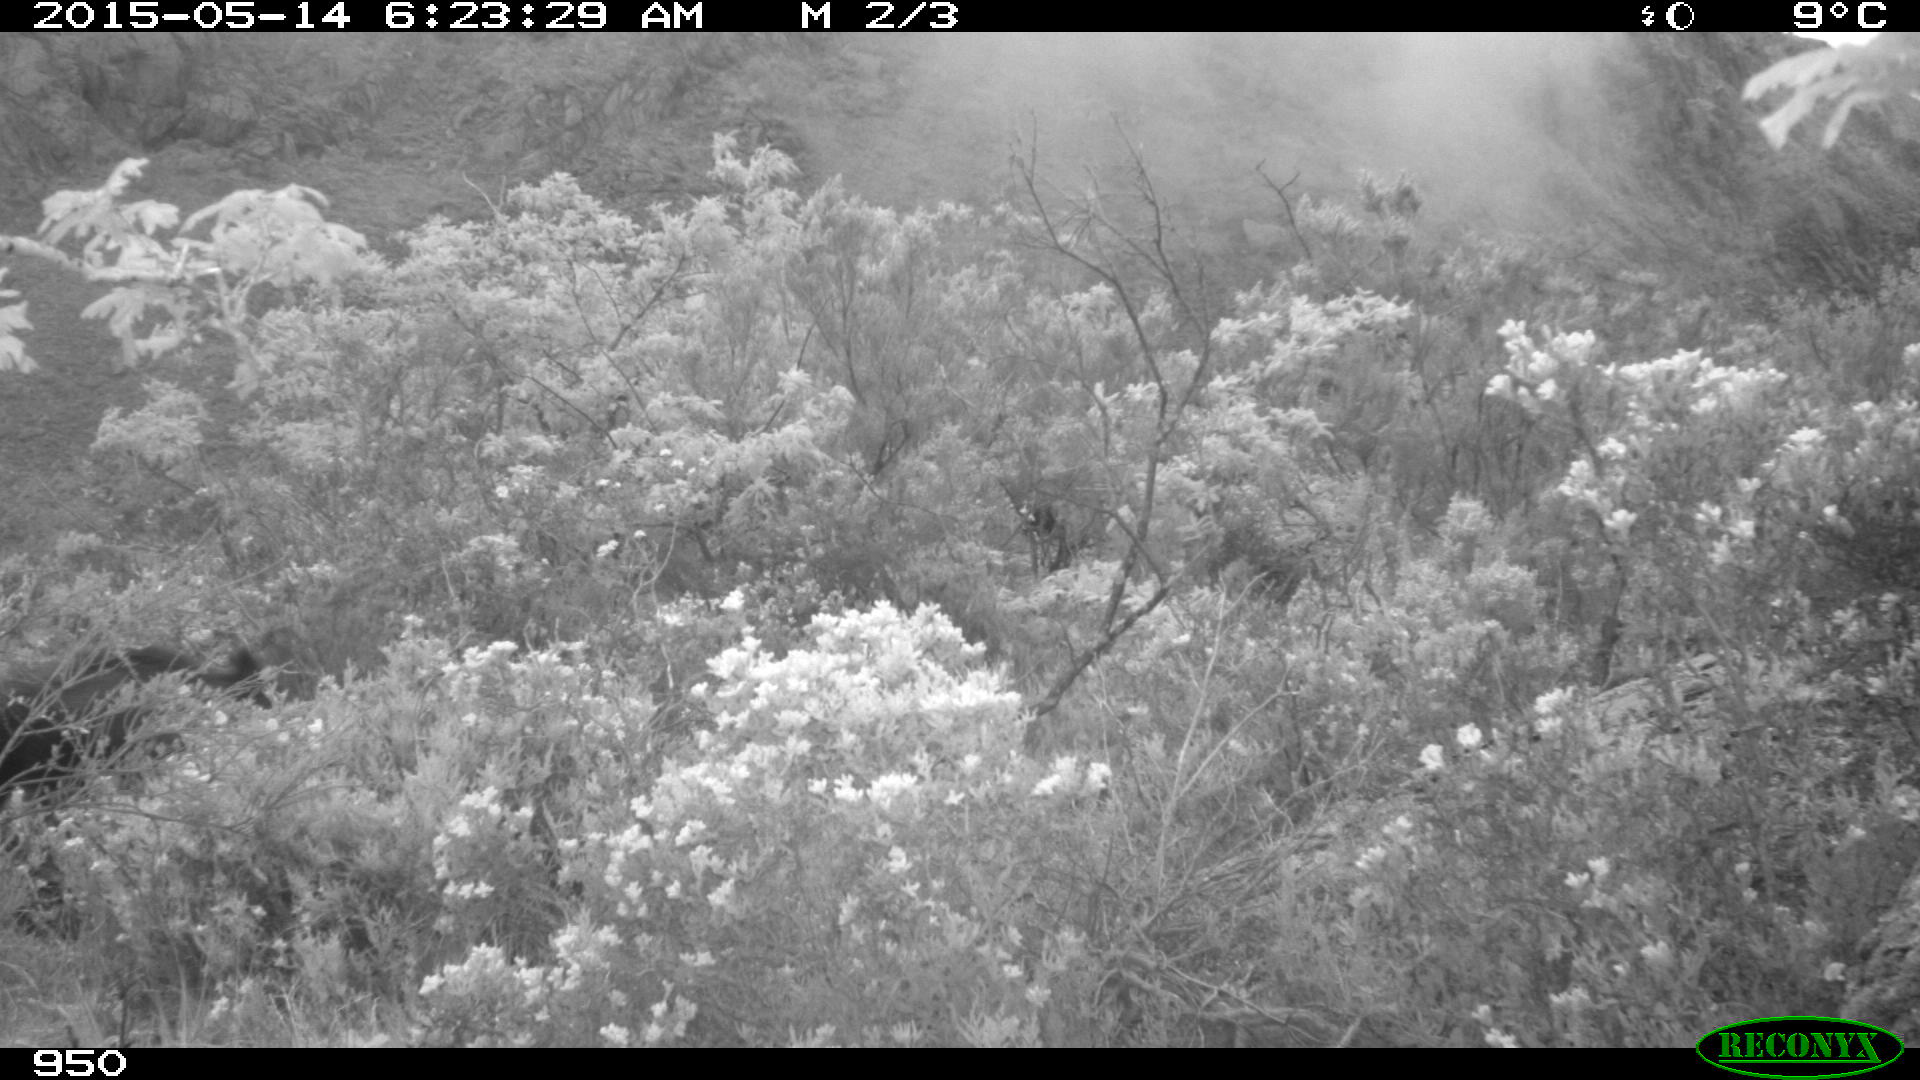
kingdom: Animalia
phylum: Chordata
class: Mammalia
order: Artiodactyla
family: Suidae
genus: Sus
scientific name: Sus scrofa
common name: Wild boar
